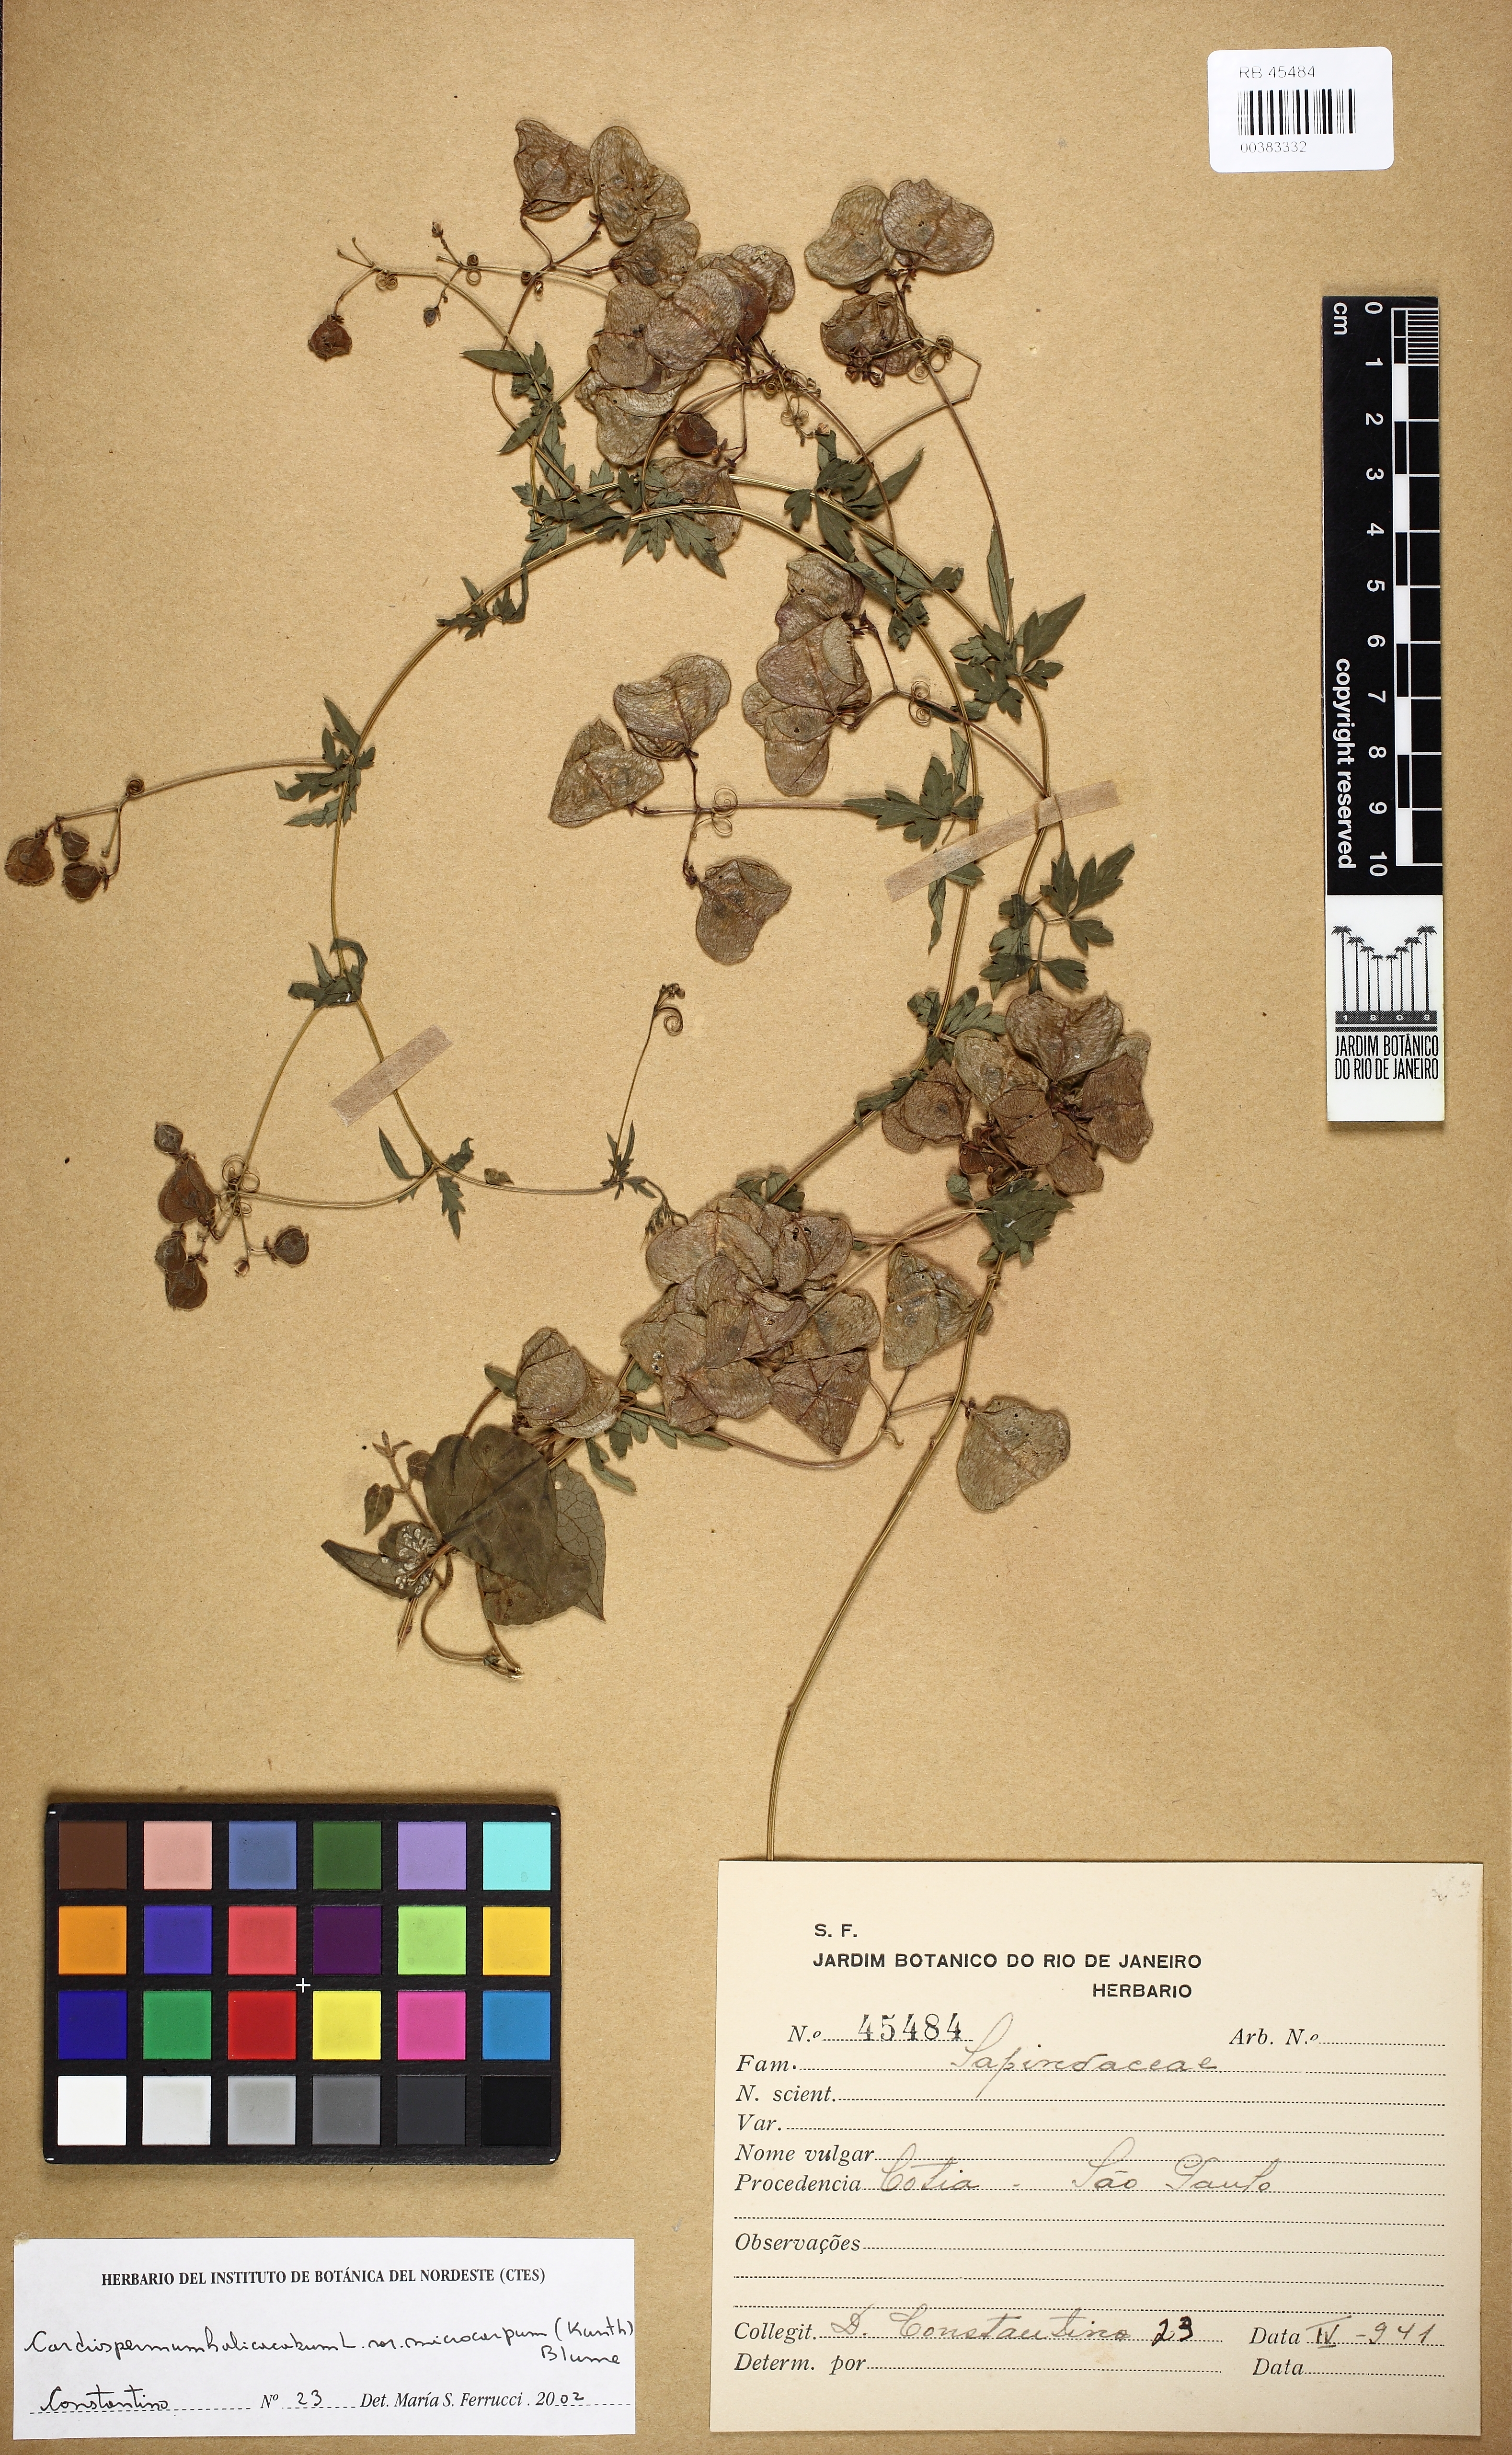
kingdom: Plantae
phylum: Tracheophyta
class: Magnoliopsida
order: Sapindales
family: Sapindaceae
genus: Cardiospermum
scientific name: Cardiospermum microcarpum
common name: Heart seed
